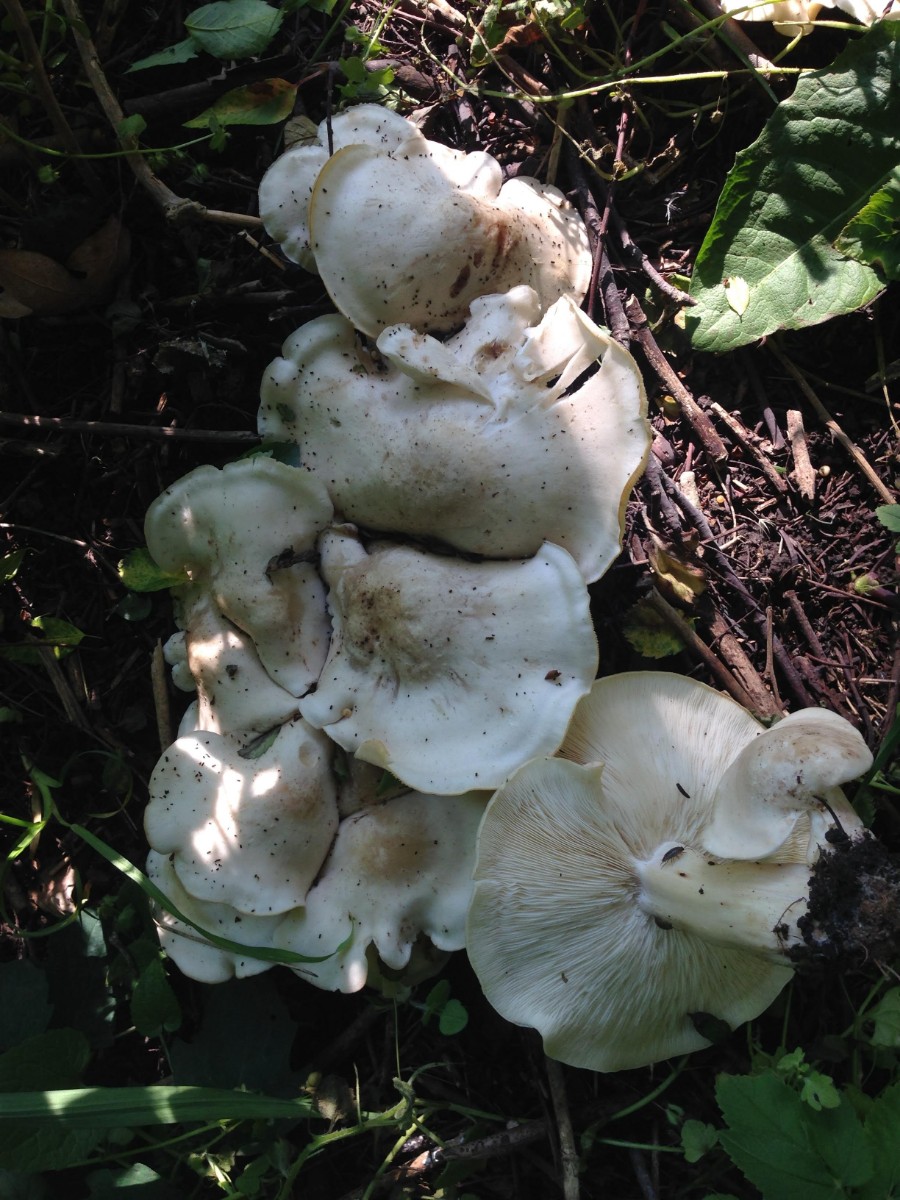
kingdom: Fungi
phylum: Basidiomycota
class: Agaricomycetes
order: Agaricales
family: Lyophyllaceae
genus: Calocybe
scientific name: Calocybe gambosa
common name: vårmusseron
